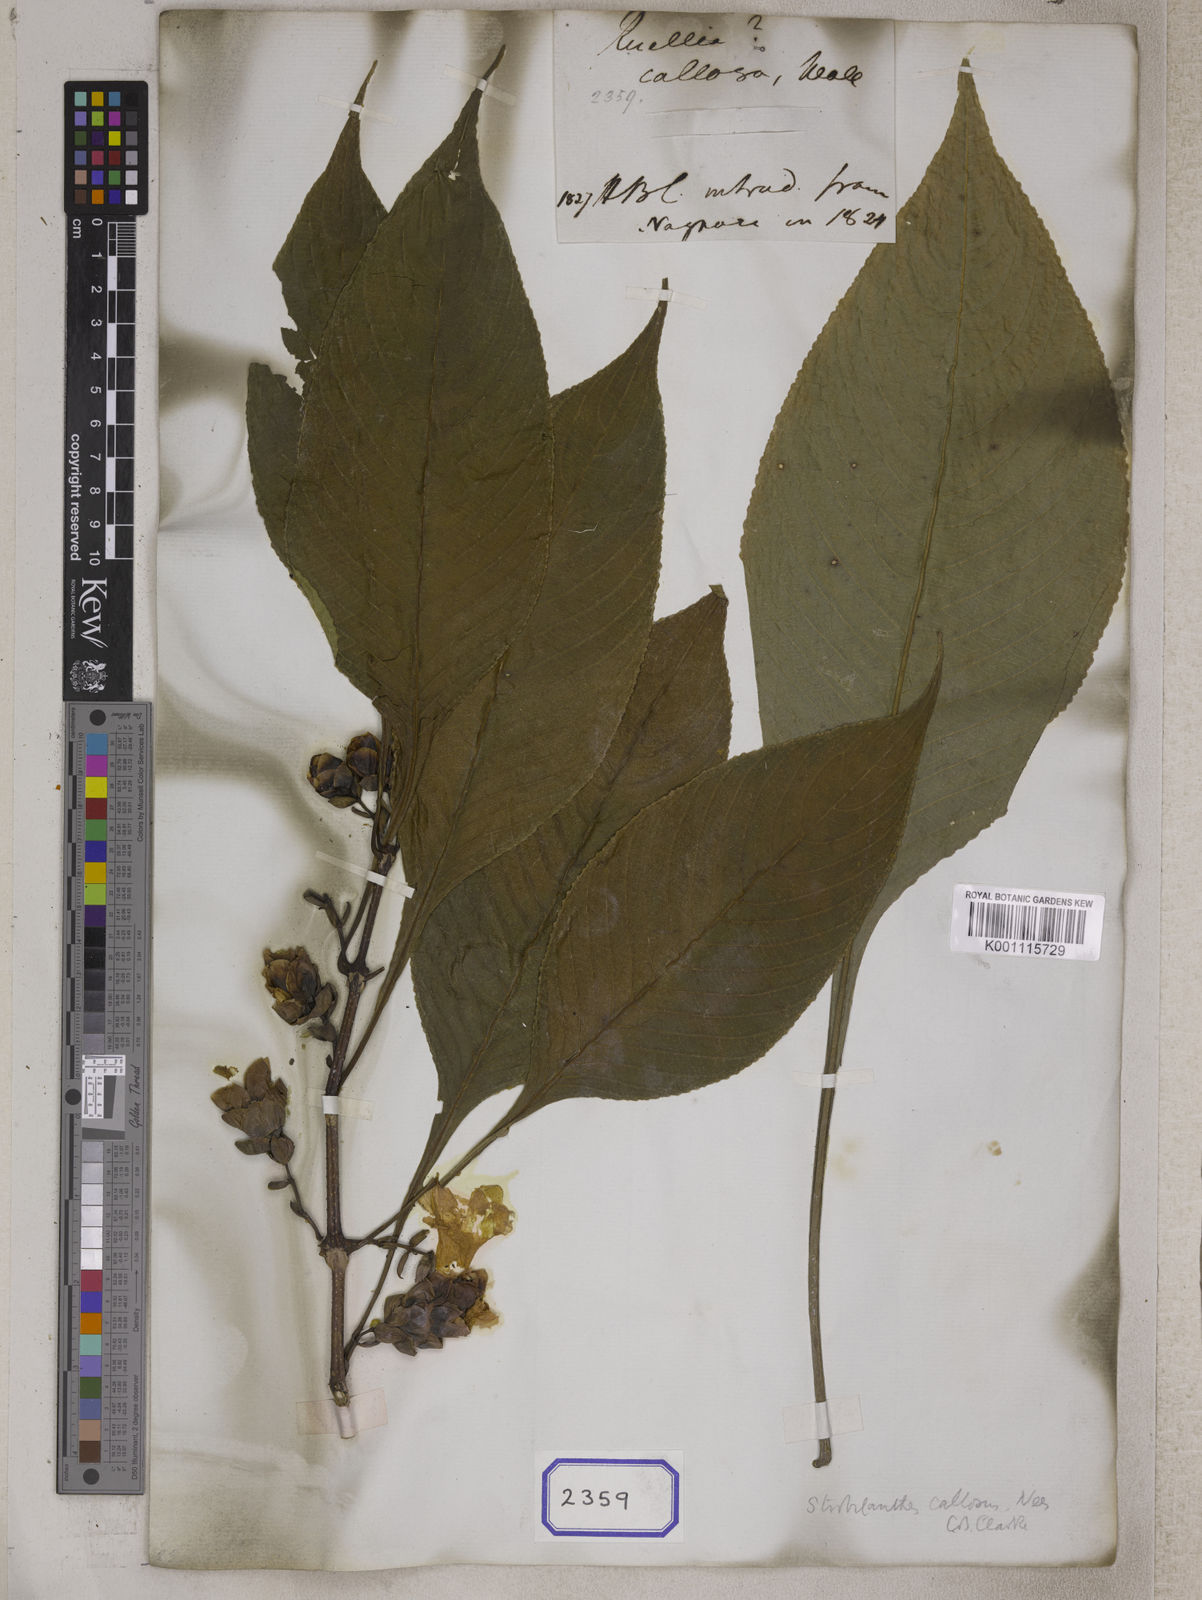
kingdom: Plantae
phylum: Tracheophyta
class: Magnoliopsida
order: Lamiales
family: Acanthaceae
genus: Strobilanthes
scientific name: Strobilanthes callosa
